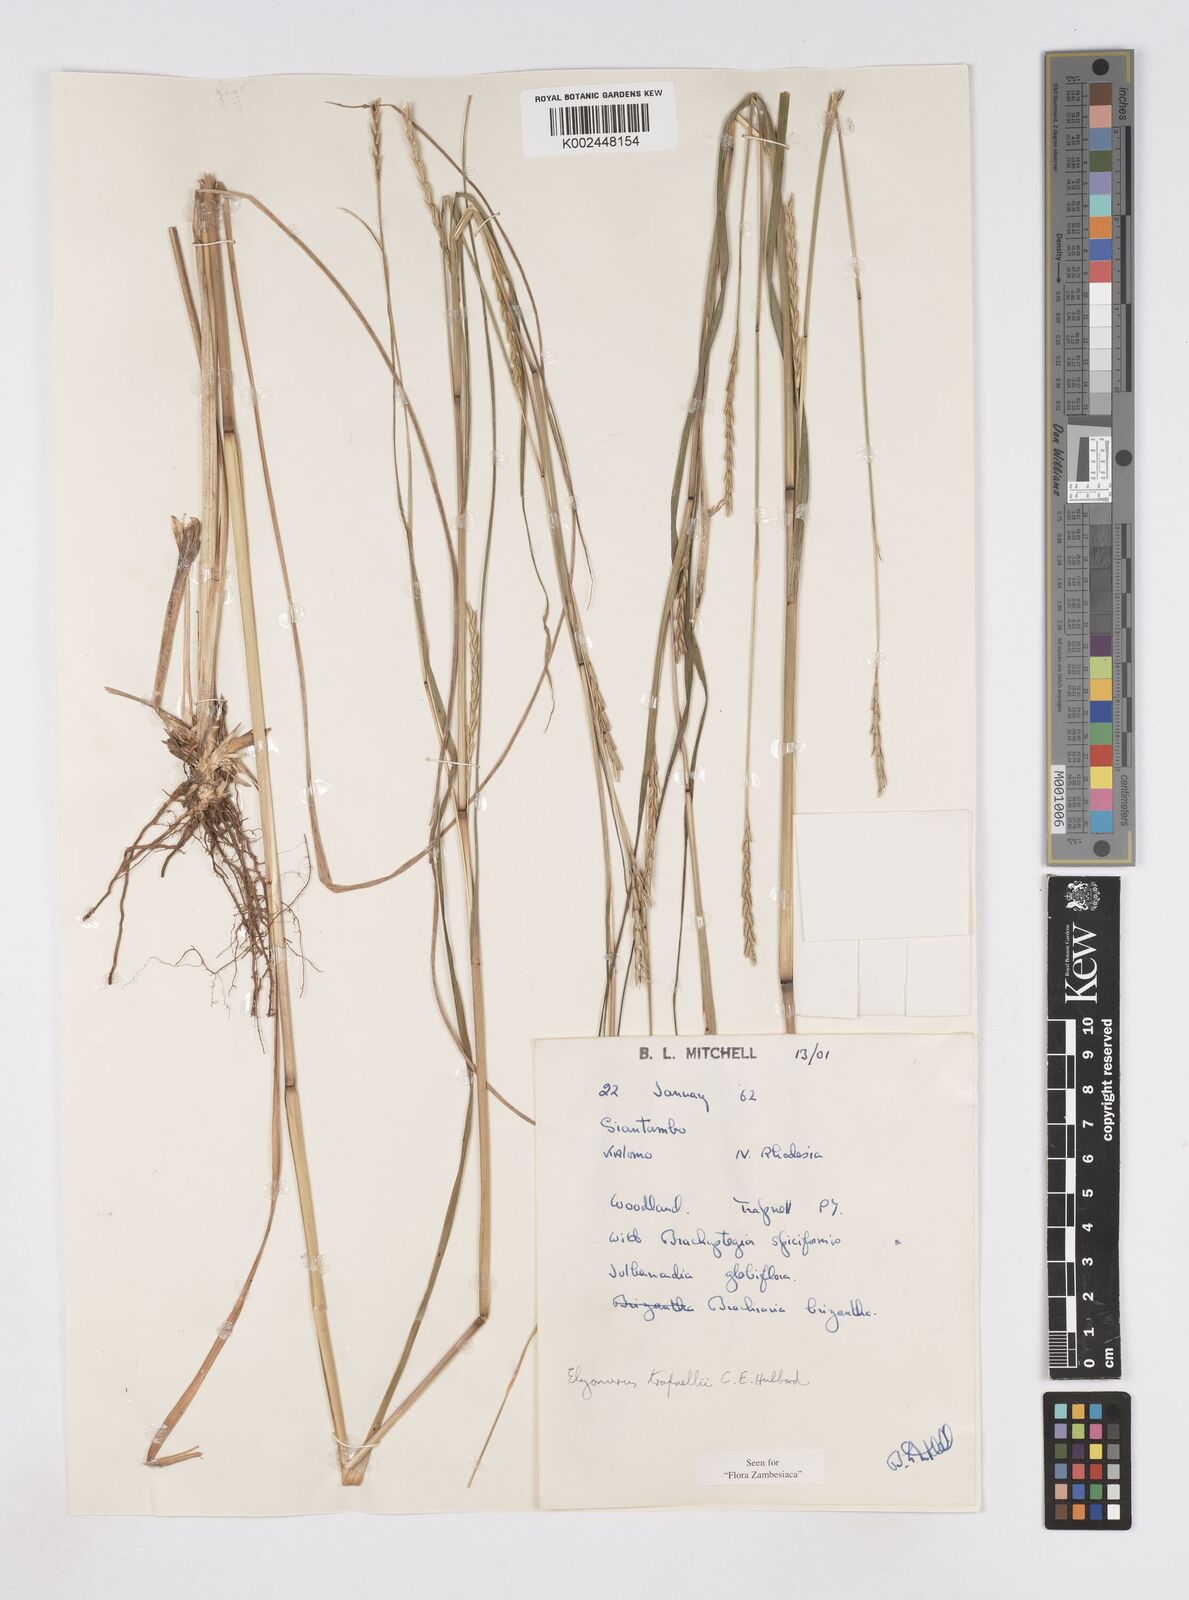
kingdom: Plantae
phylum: Tracheophyta
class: Liliopsida
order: Poales
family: Poaceae
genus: Elionurus
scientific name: Elionurus tripsacoides
